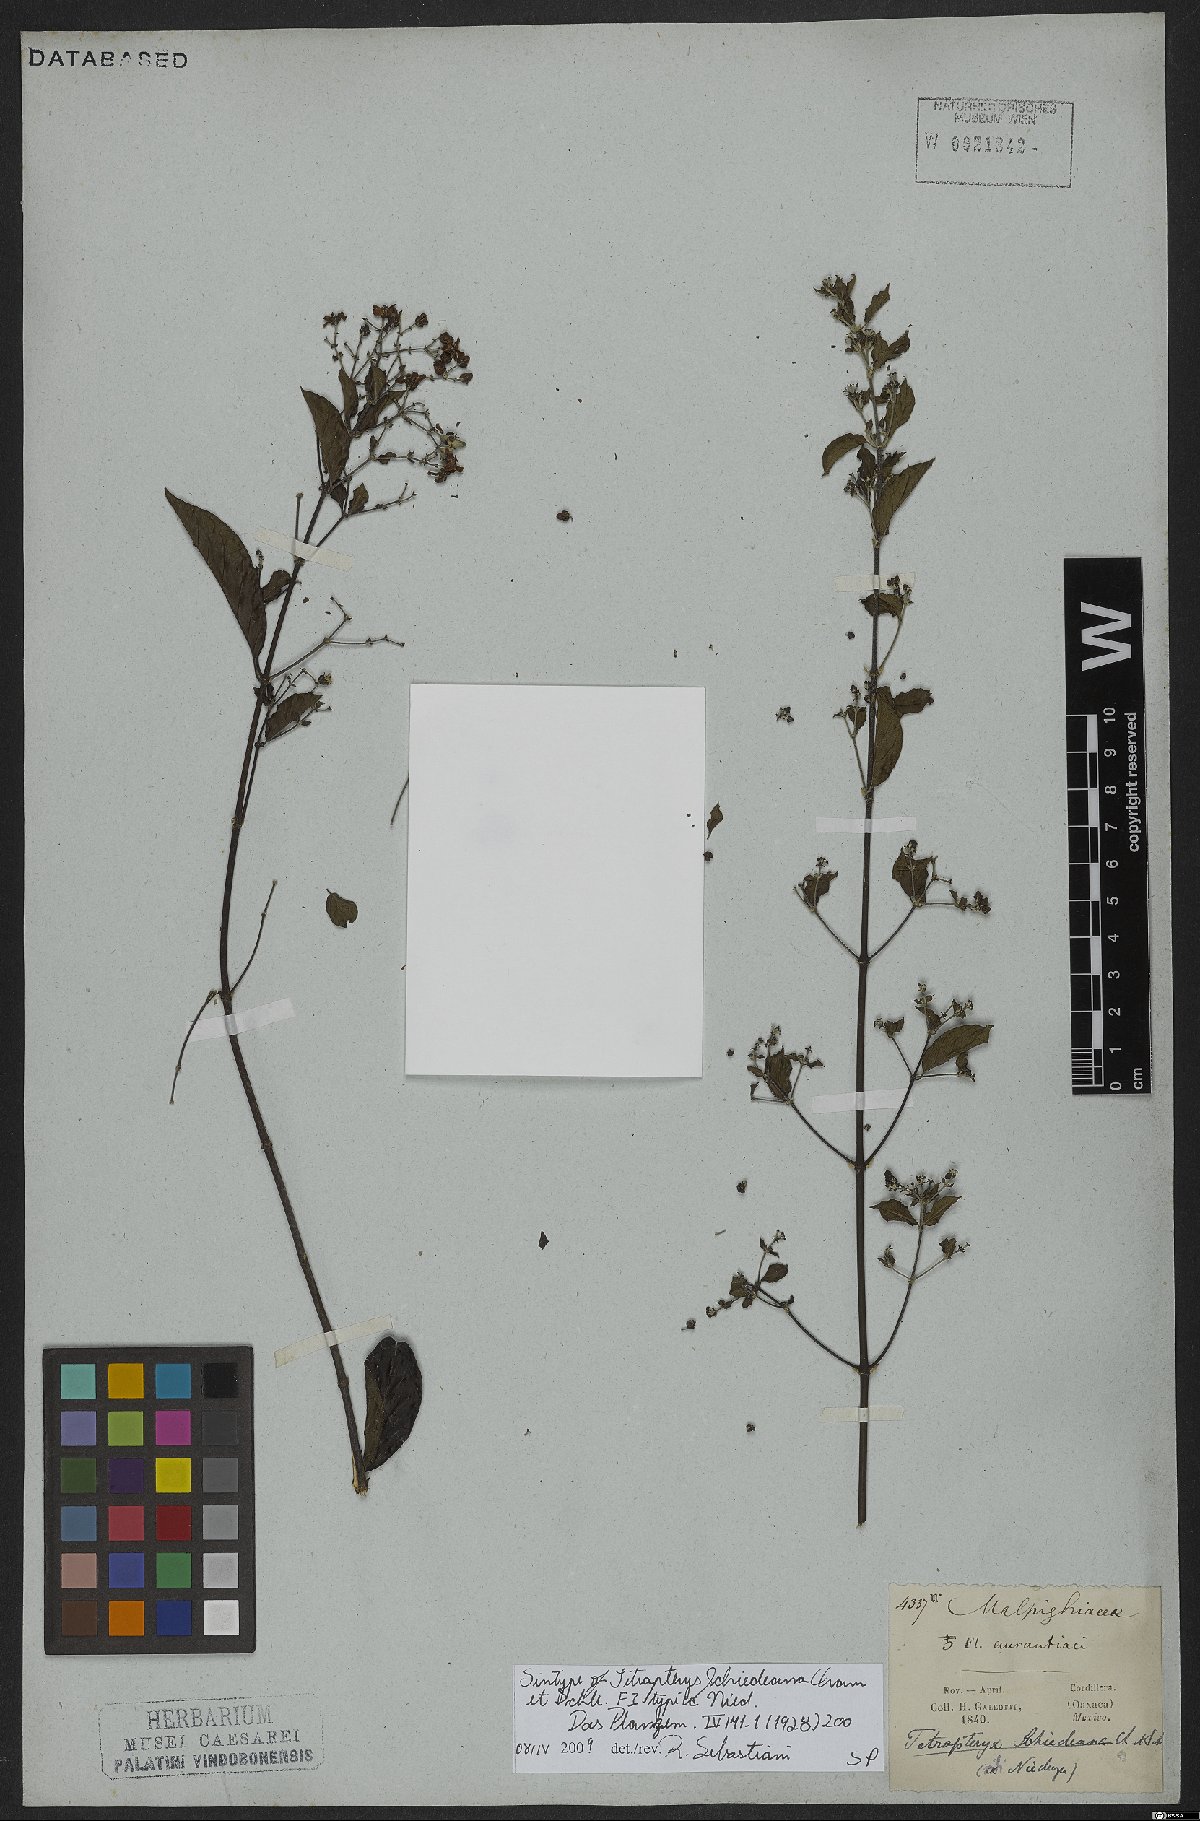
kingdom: Plantae
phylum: Tracheophyta
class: Magnoliopsida
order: Malpighiales
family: Malpighiaceae
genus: Tetrapterys
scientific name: Tetrapterys schiedeana
